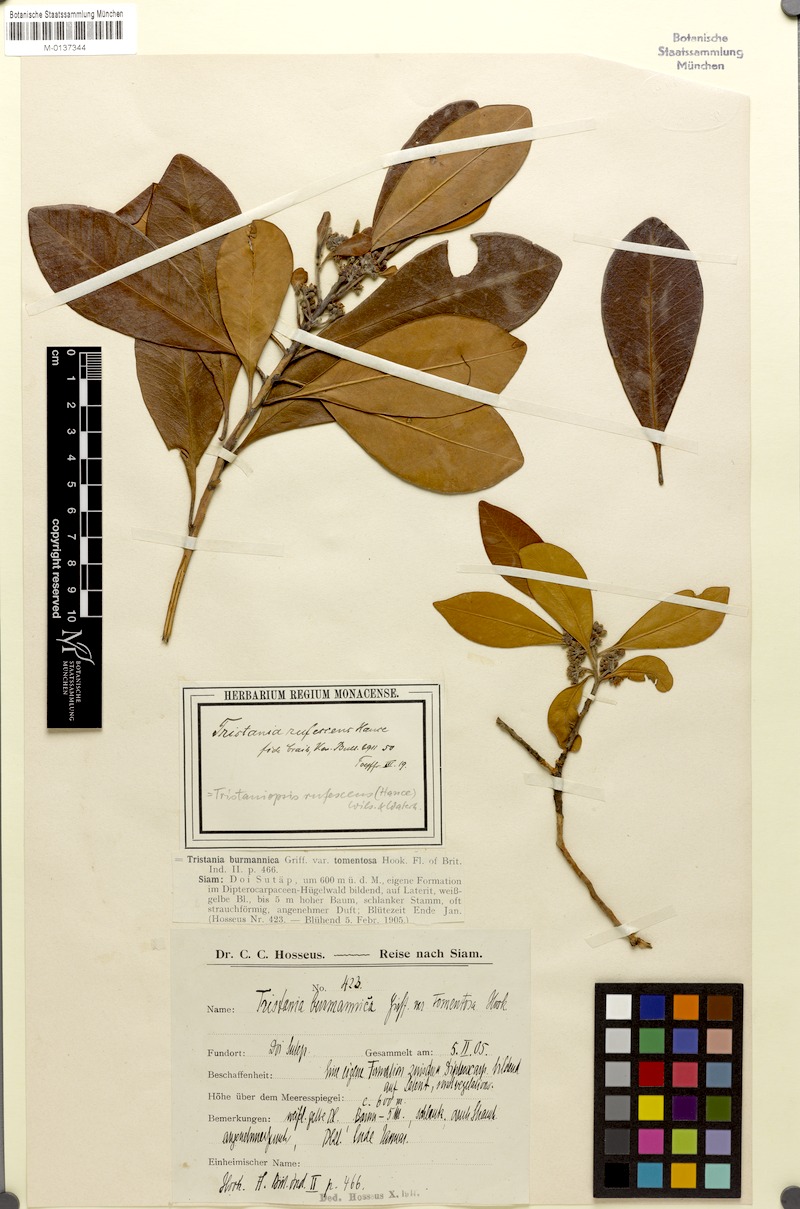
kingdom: Plantae
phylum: Tracheophyta
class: Magnoliopsida
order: Myrtales
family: Myrtaceae
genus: Tristaniopsis
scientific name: Tristaniopsis burmanica
